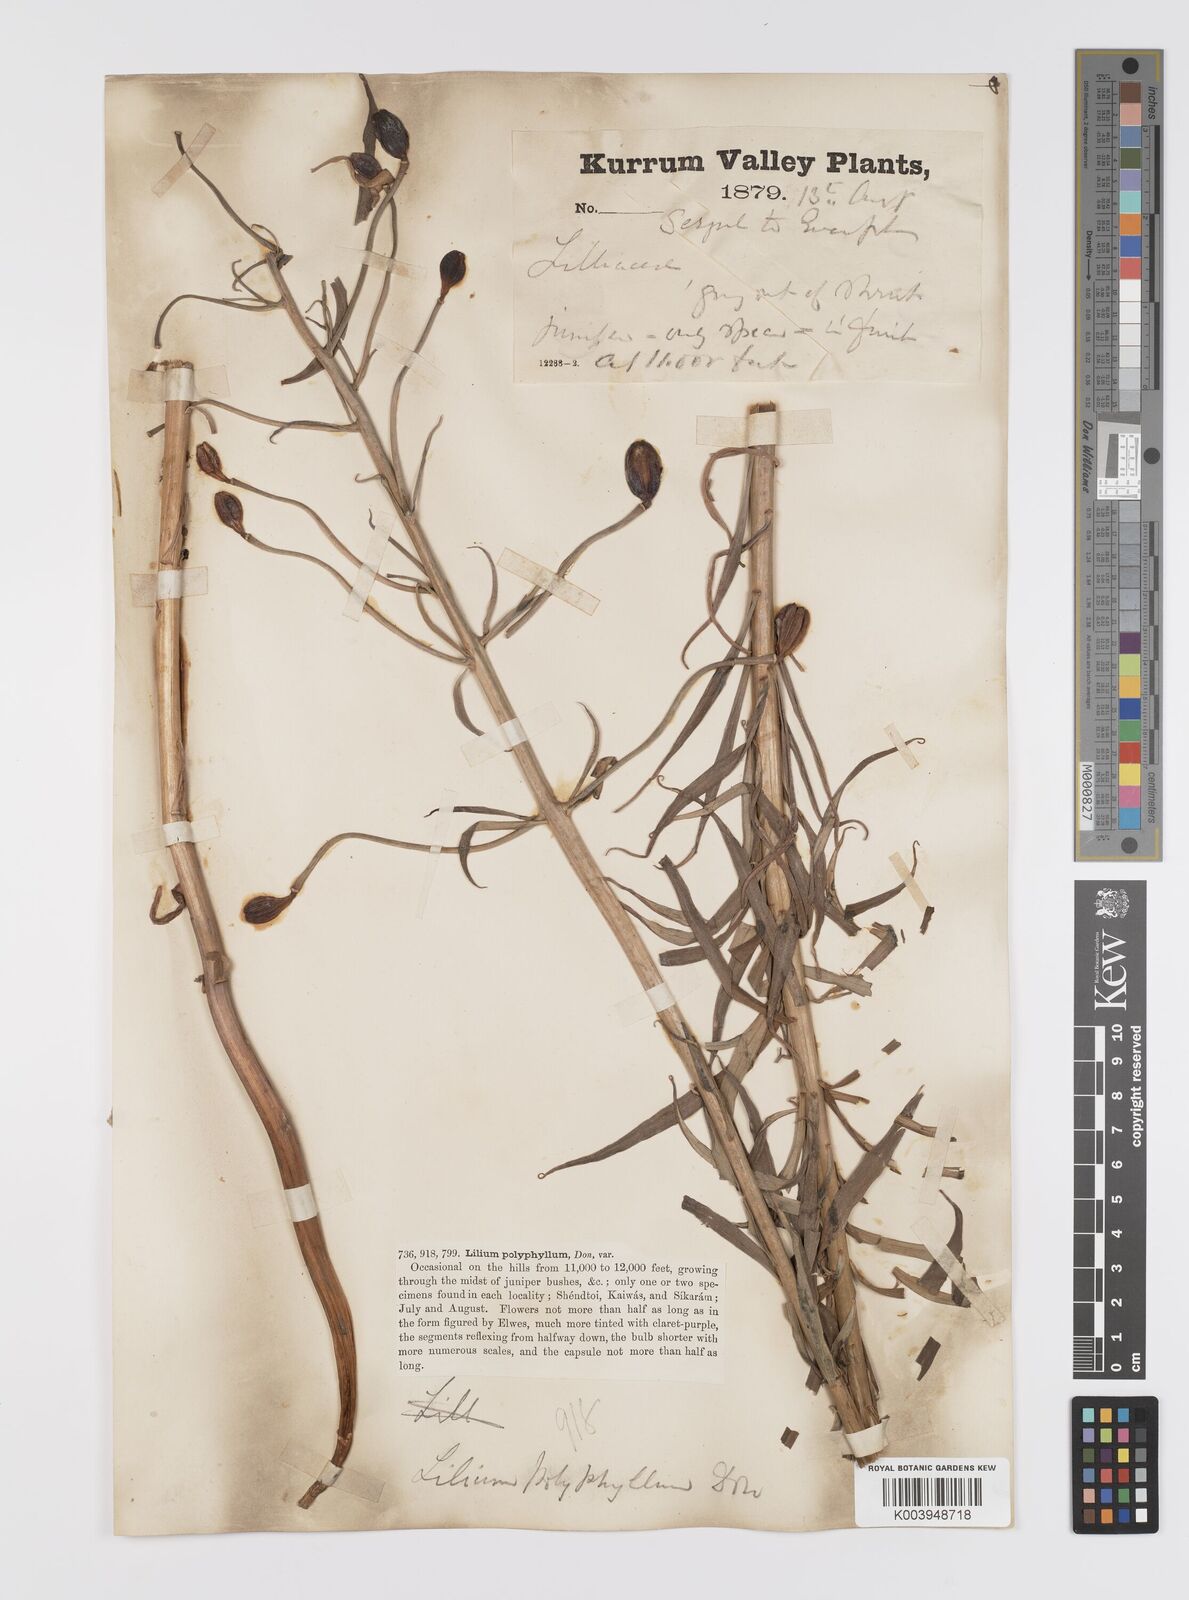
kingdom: Plantae
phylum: Tracheophyta
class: Liliopsida
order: Liliales
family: Liliaceae
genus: Lilium
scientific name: Lilium polyphyllum
